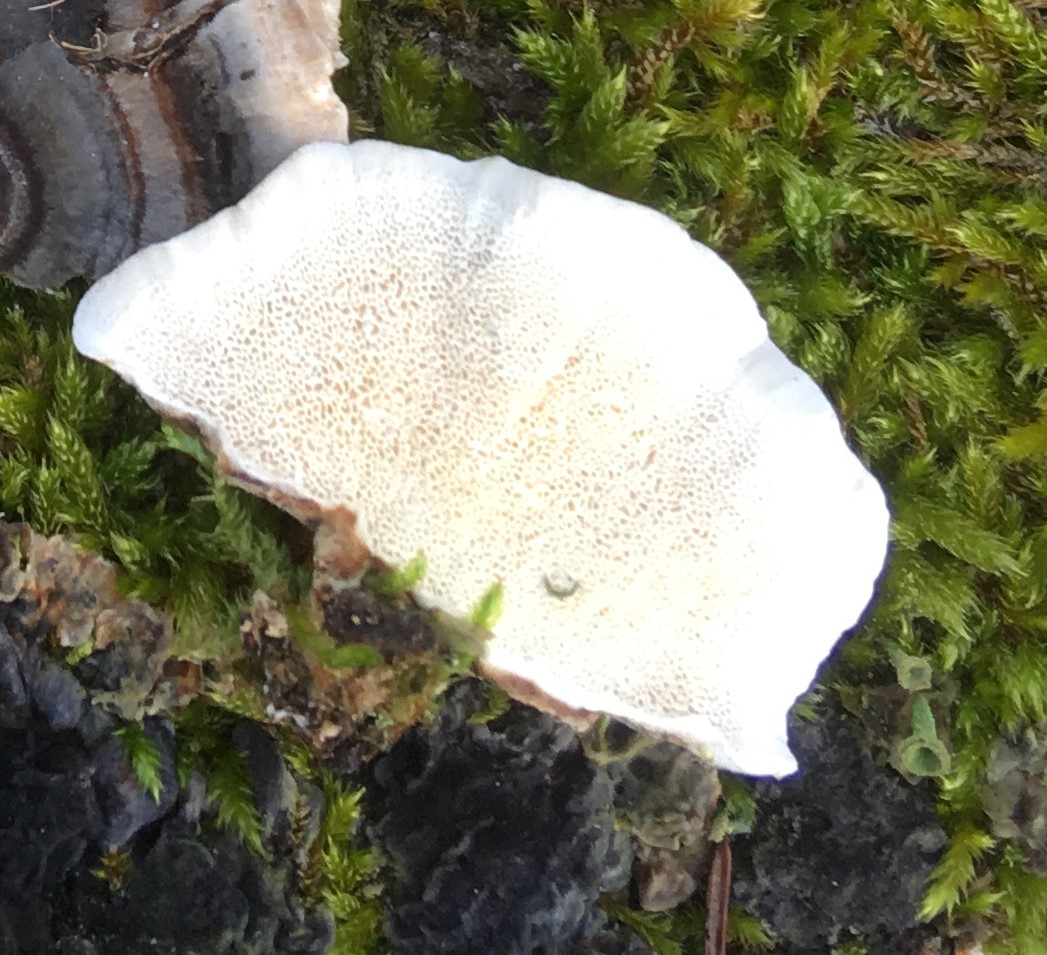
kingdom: Fungi
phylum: Basidiomycota
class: Agaricomycetes
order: Polyporales
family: Polyporaceae
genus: Trametes
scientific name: Trametes versicolor
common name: broget læderporesvamp
